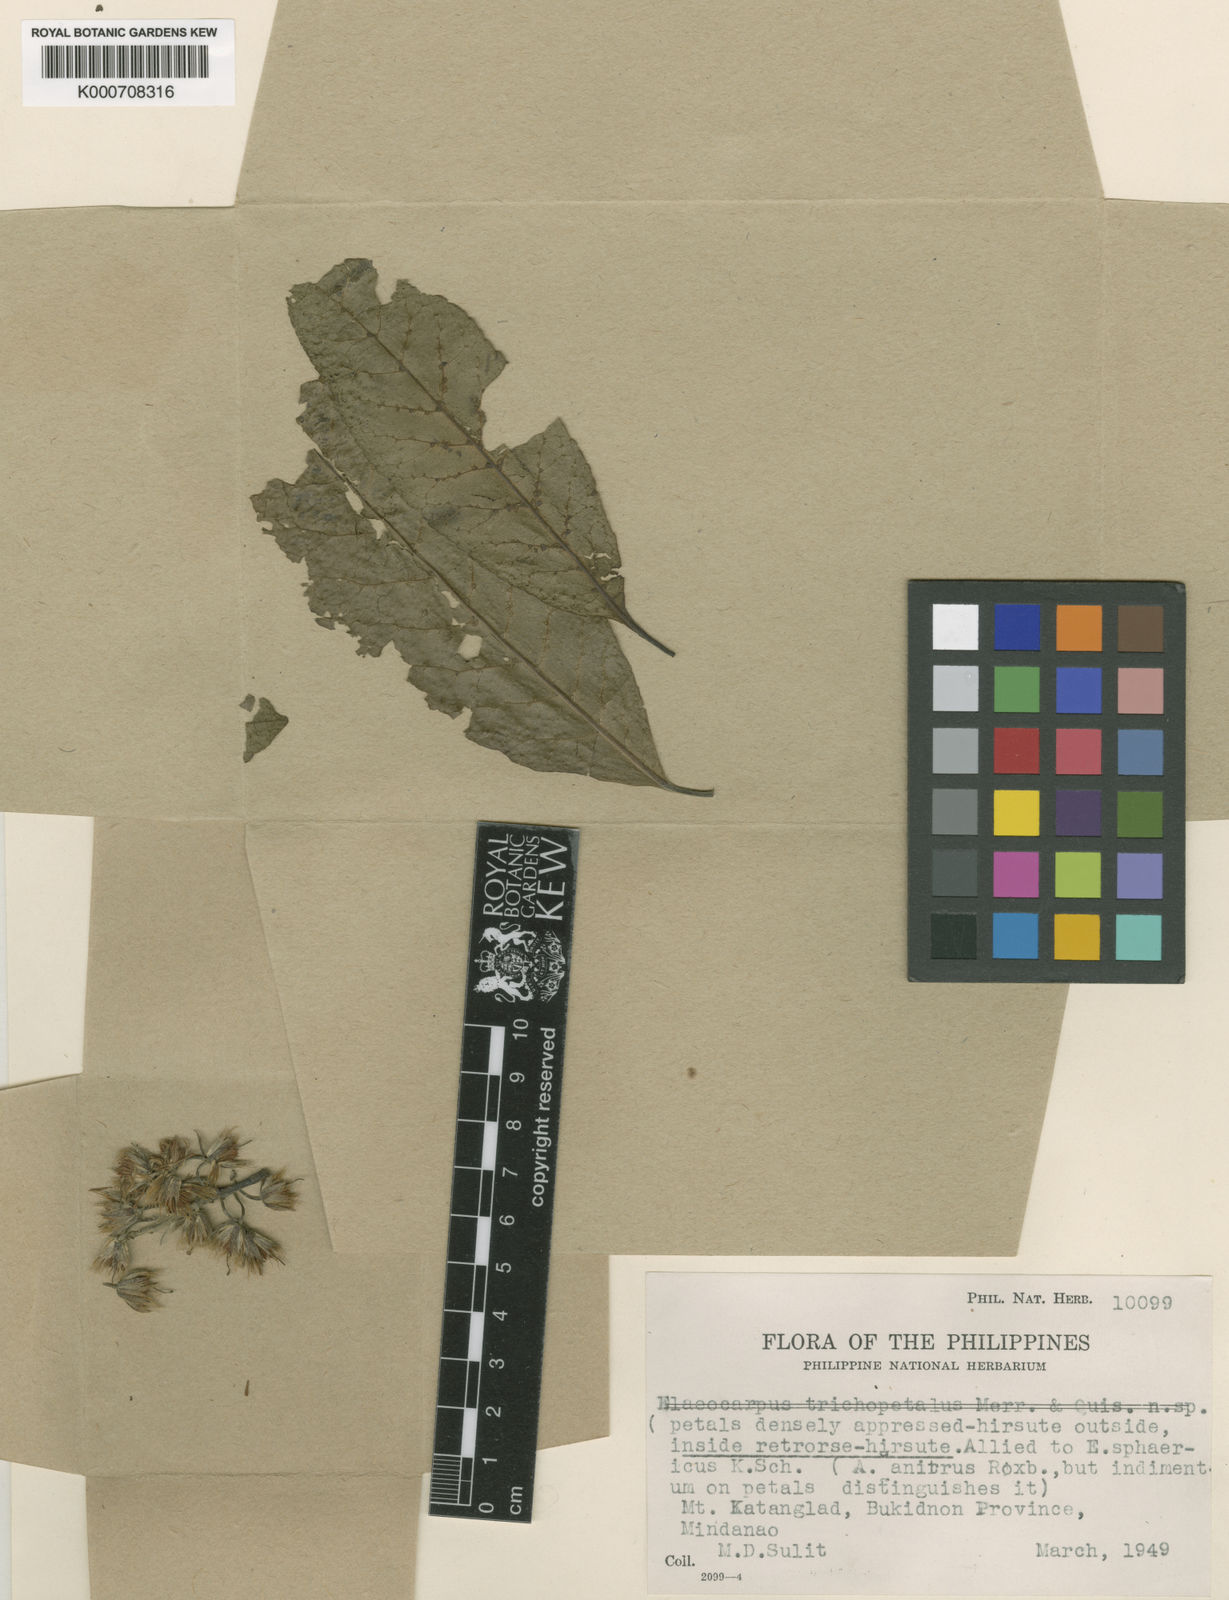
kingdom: Plantae
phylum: Tracheophyta
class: Magnoliopsida
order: Oxalidales
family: Elaeocarpaceae
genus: Elaeocarpus
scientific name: Elaeocarpus angustifolius
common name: Blue marble tree
